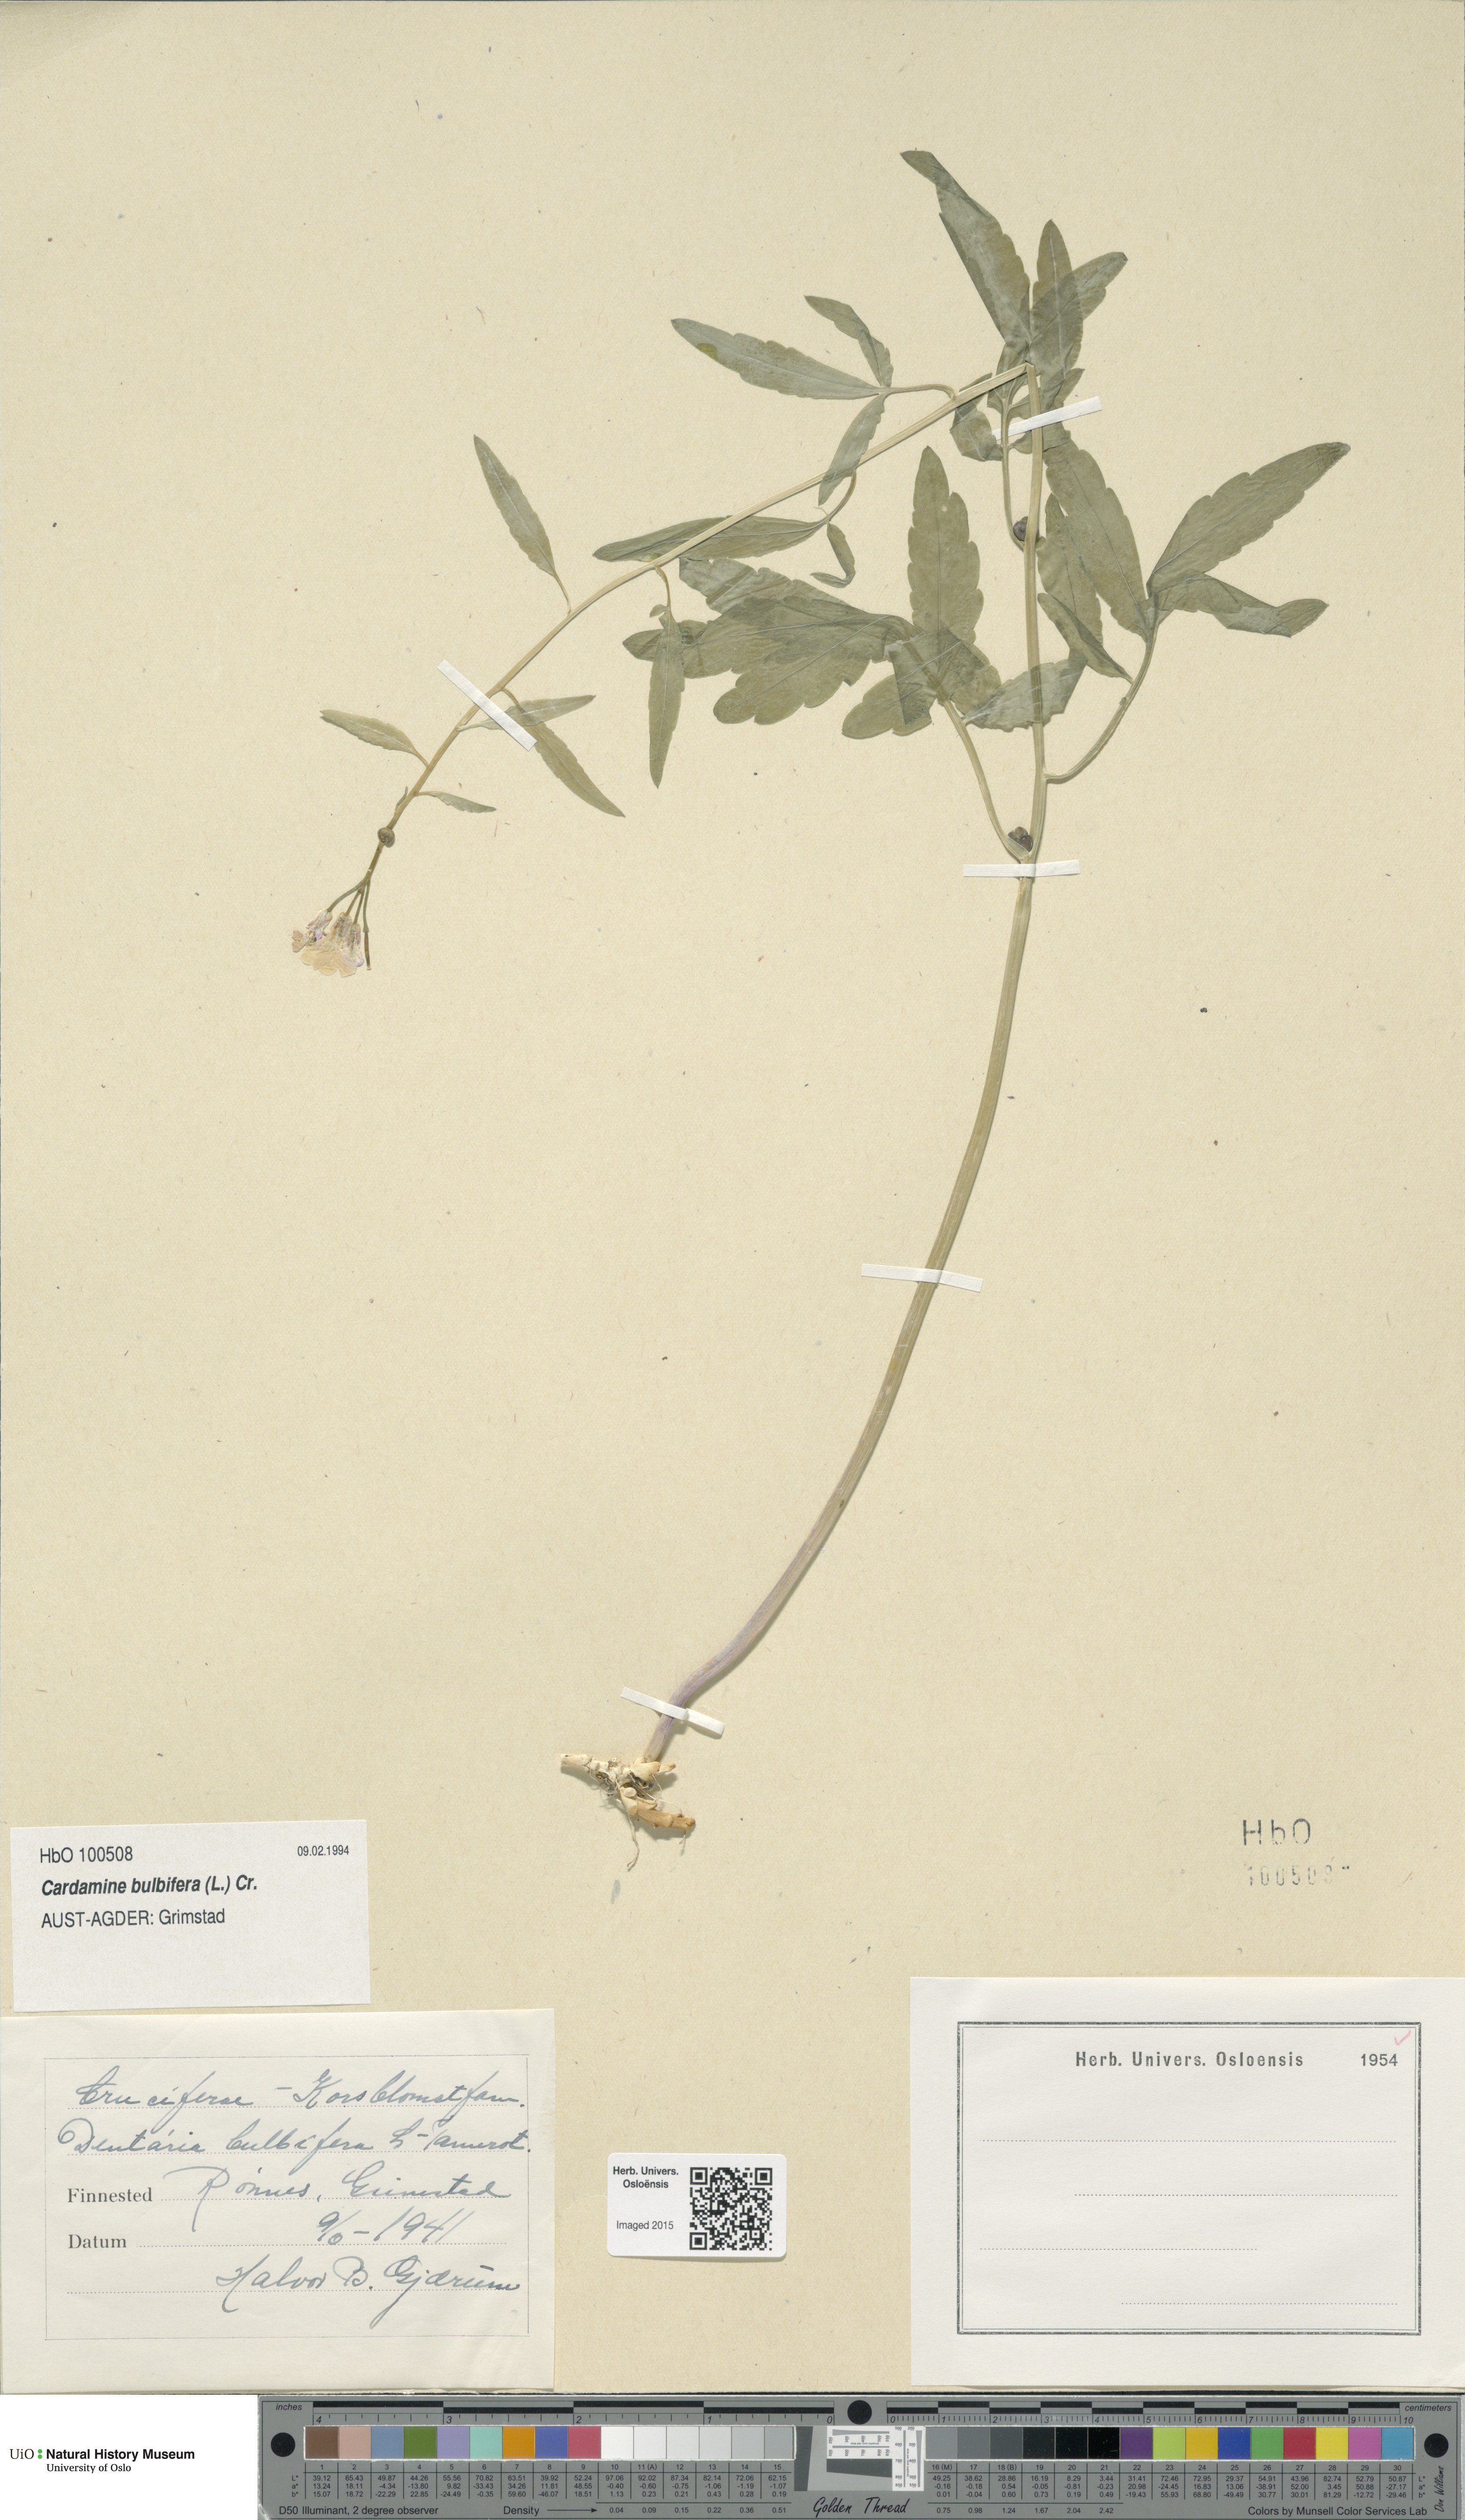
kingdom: Plantae
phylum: Tracheophyta
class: Magnoliopsida
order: Brassicales
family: Brassicaceae
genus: Cardamine
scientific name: Cardamine bulbifera
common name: Coralroot bittercress
